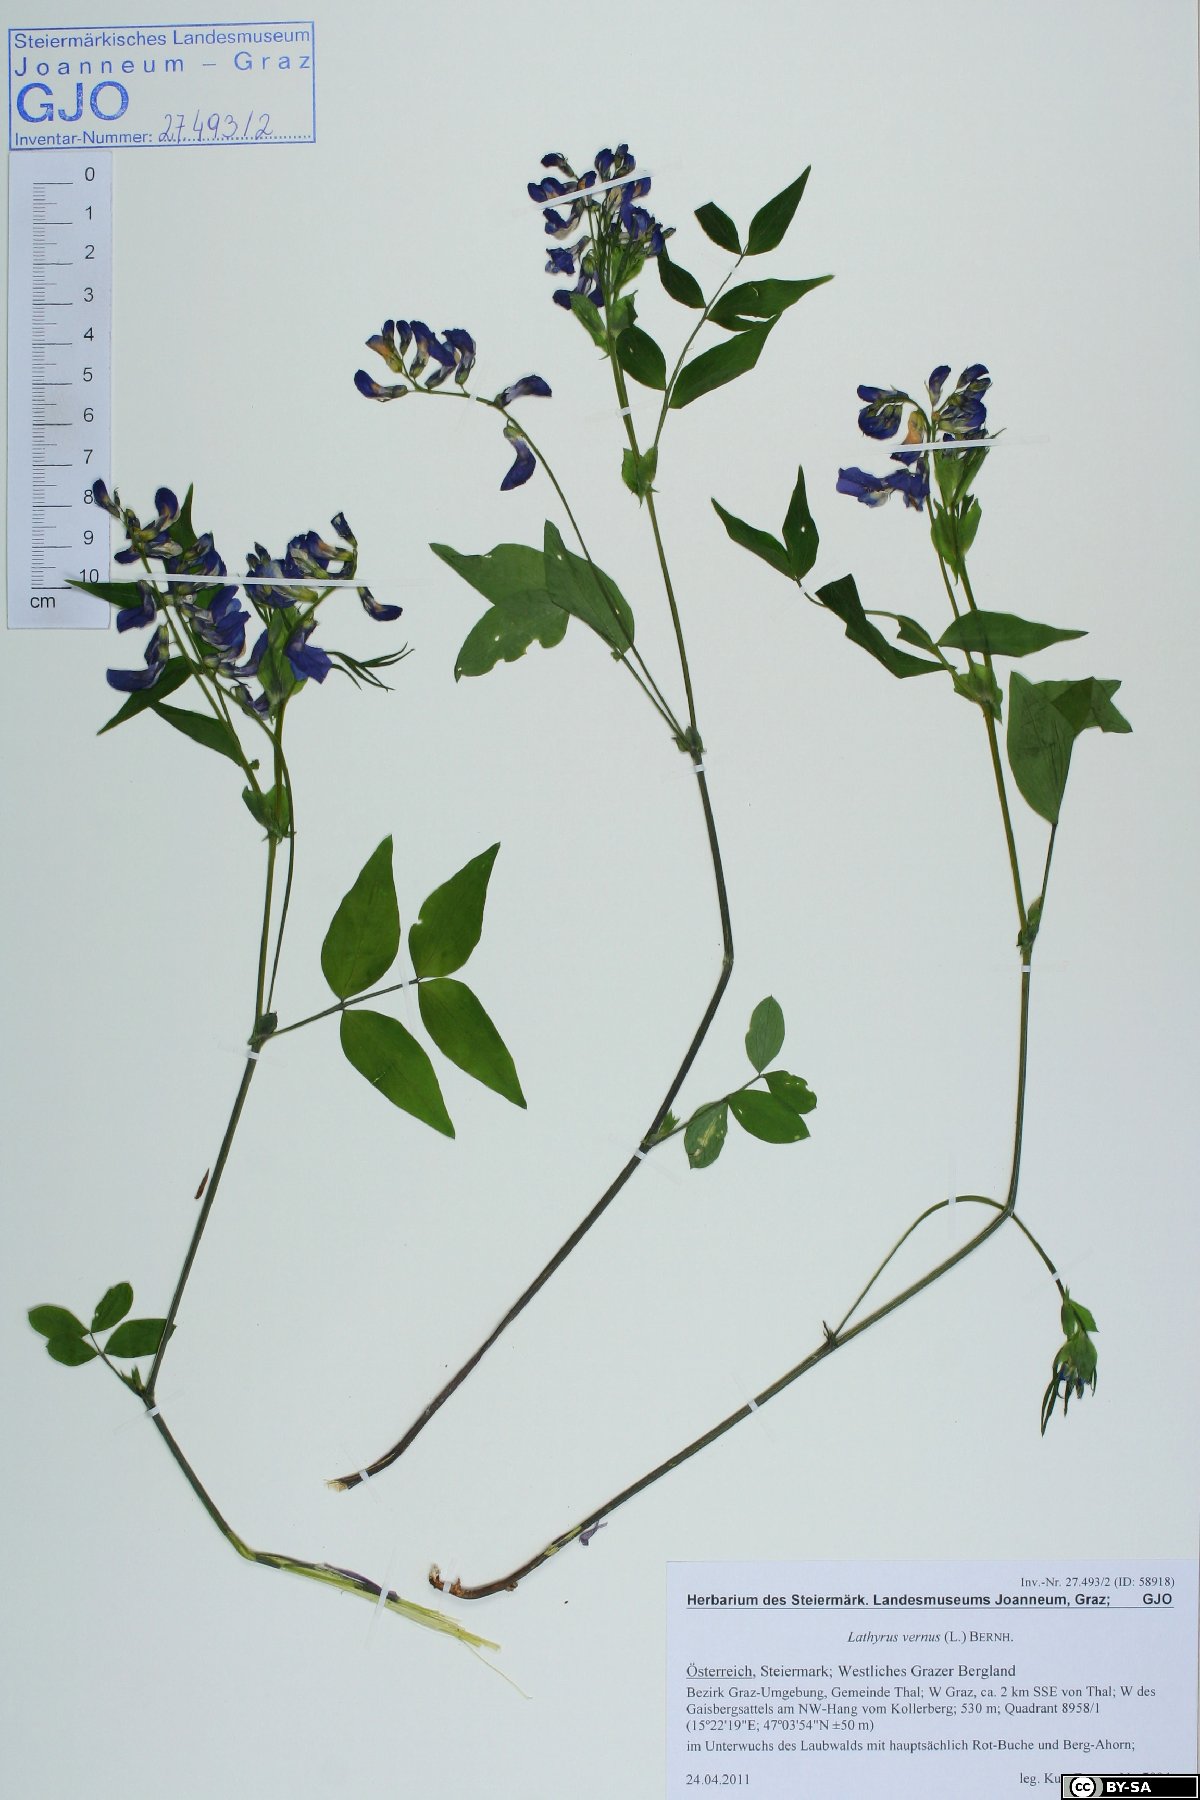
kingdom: Plantae
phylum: Tracheophyta
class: Magnoliopsida
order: Fabales
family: Fabaceae
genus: Lathyrus
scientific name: Lathyrus vernus
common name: Spring pea
